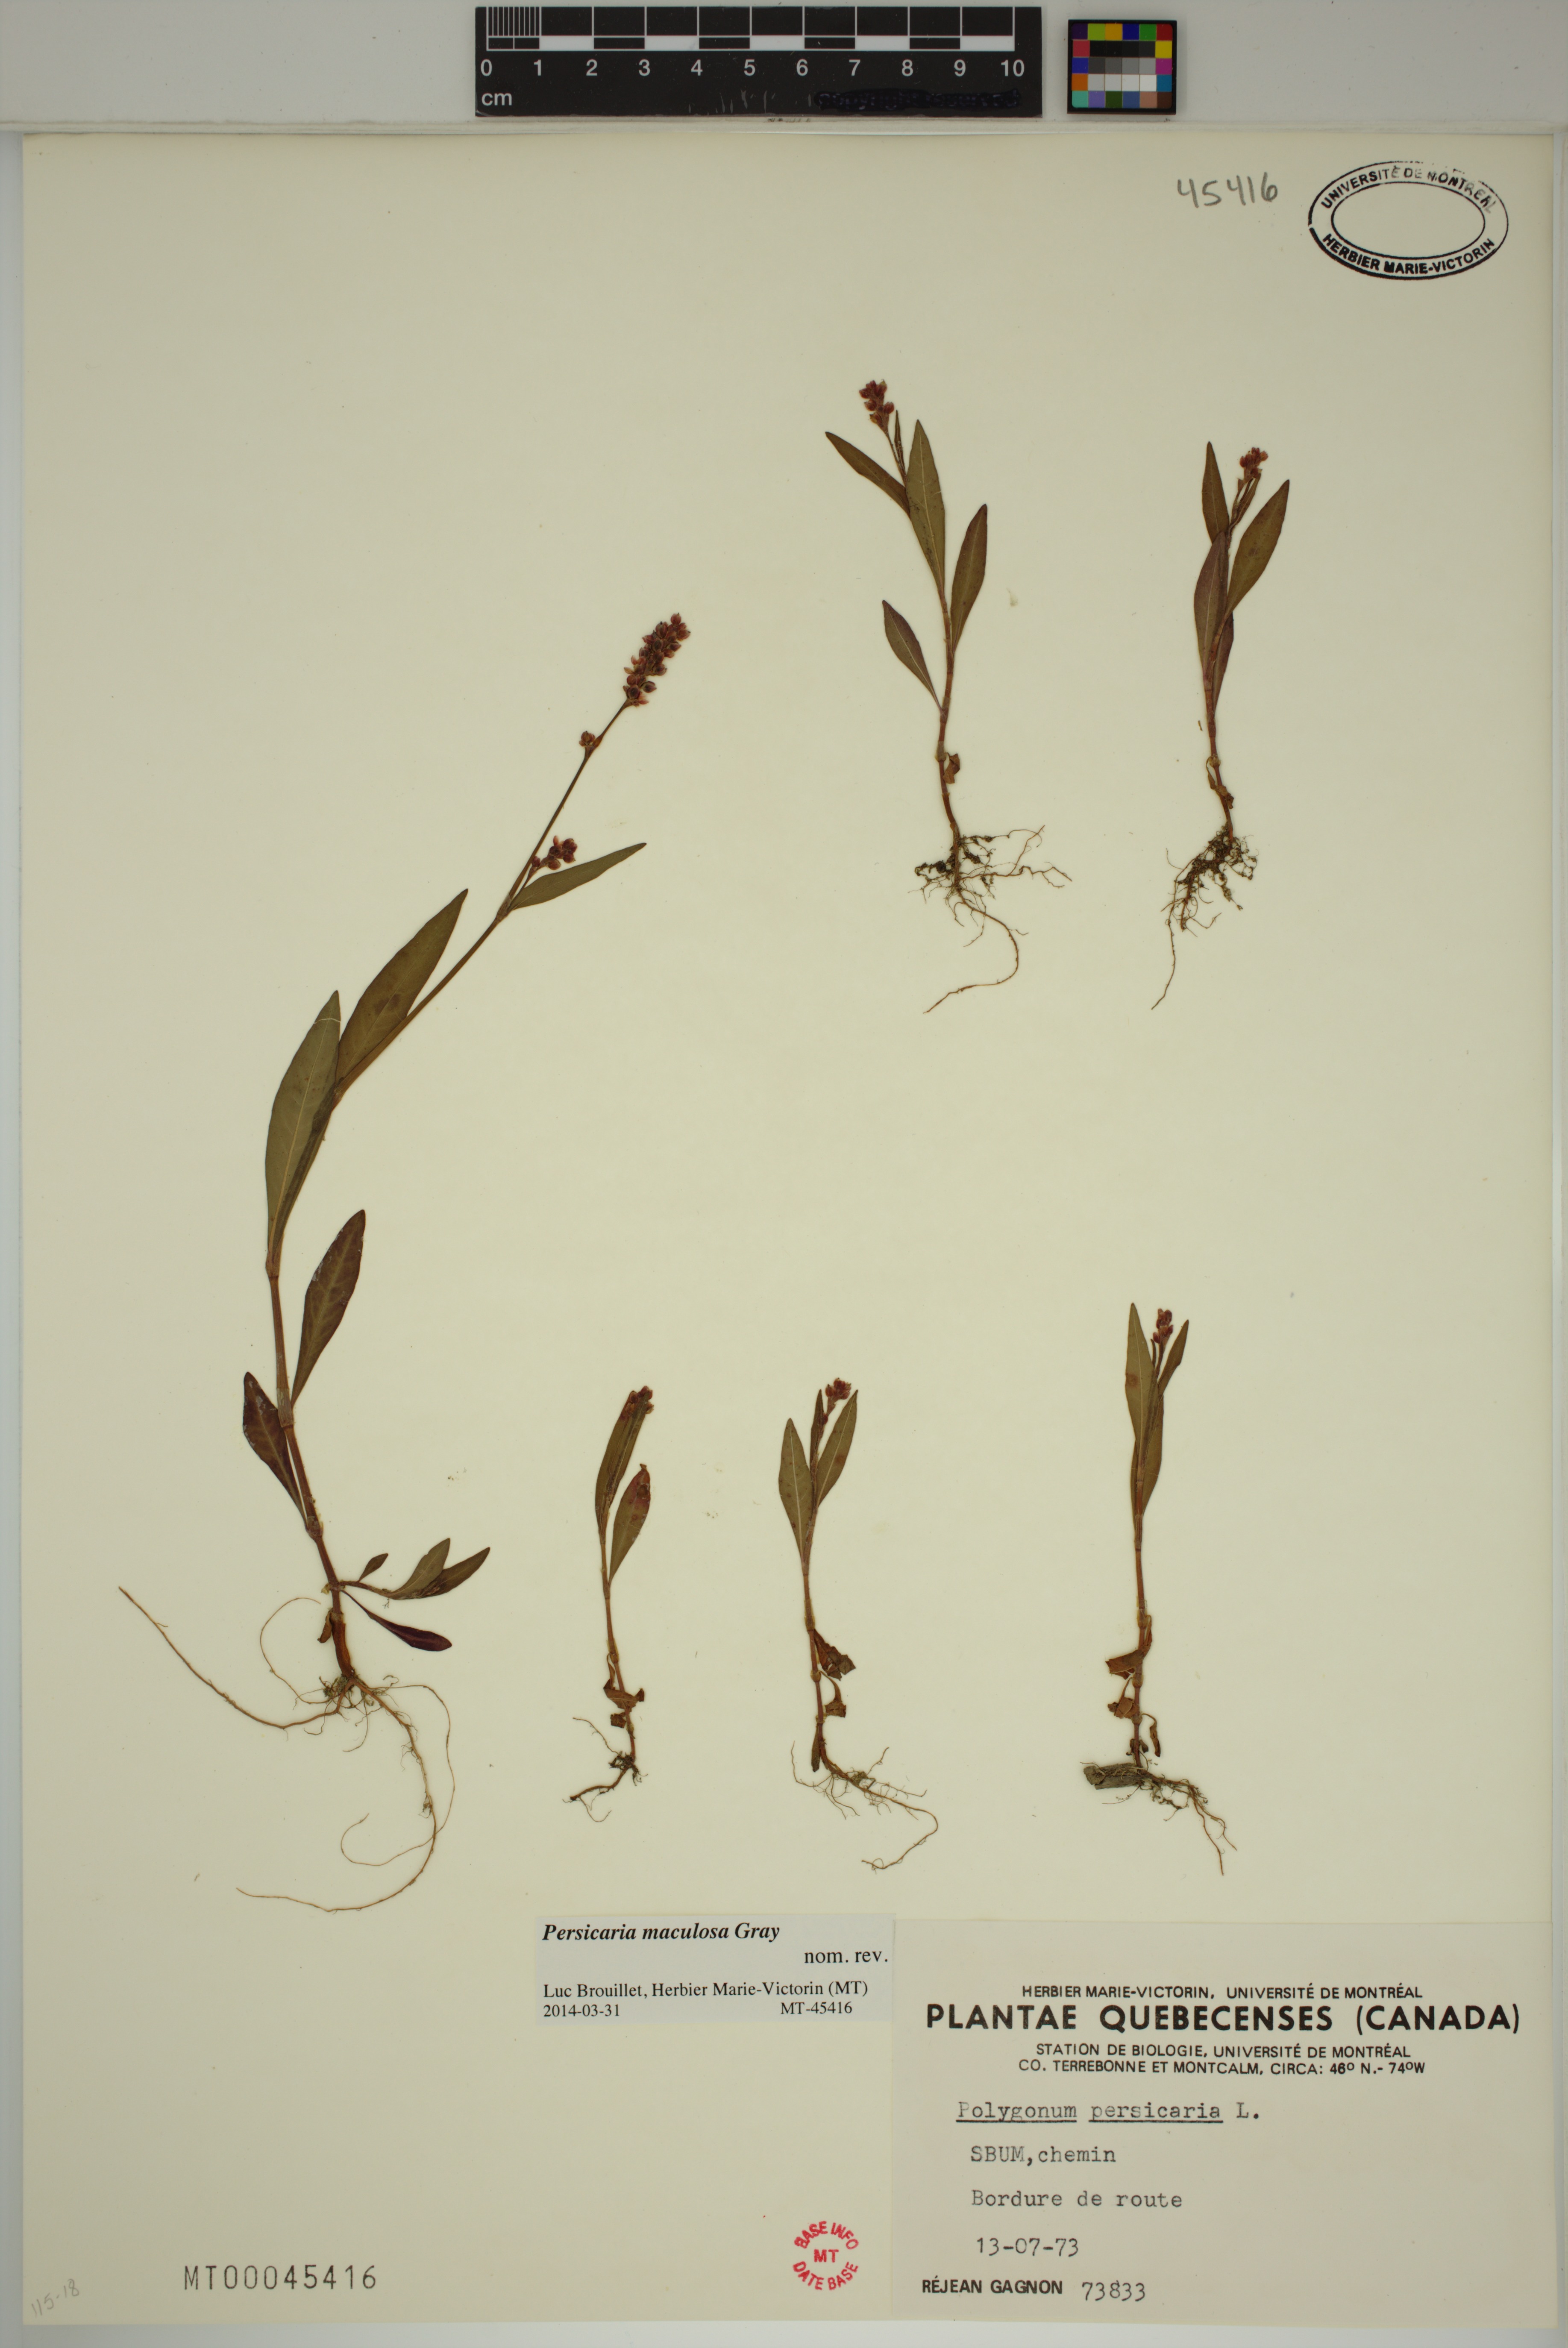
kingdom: Plantae
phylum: Tracheophyta
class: Magnoliopsida
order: Caryophyllales
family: Polygonaceae
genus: Persicaria
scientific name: Persicaria maculosa
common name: Redshank
